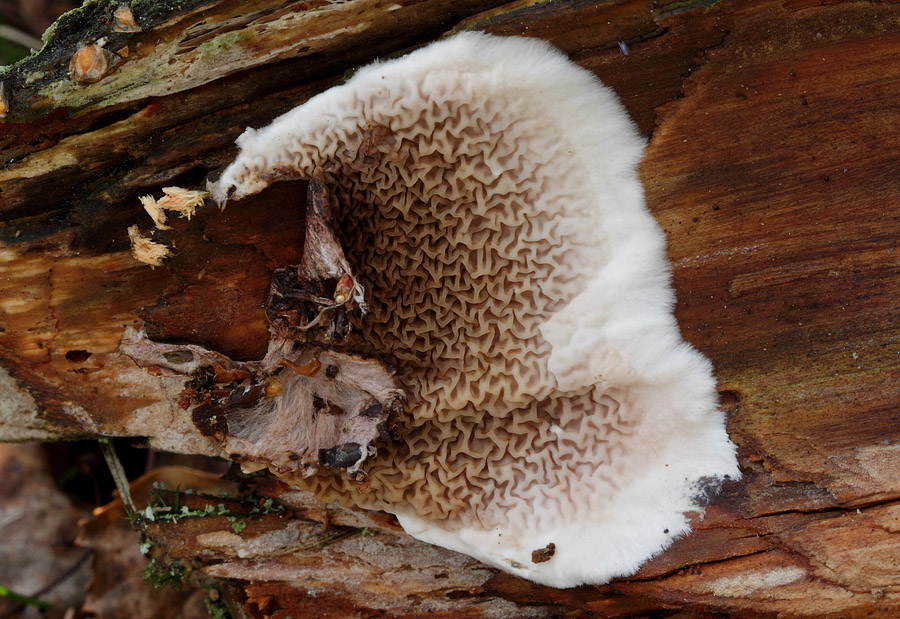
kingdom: Fungi
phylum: Basidiomycota
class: Agaricomycetes
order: Boletales
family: Serpulaceae
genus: Serpula
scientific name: Serpula himantioides
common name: tyndkødet hussvamp
